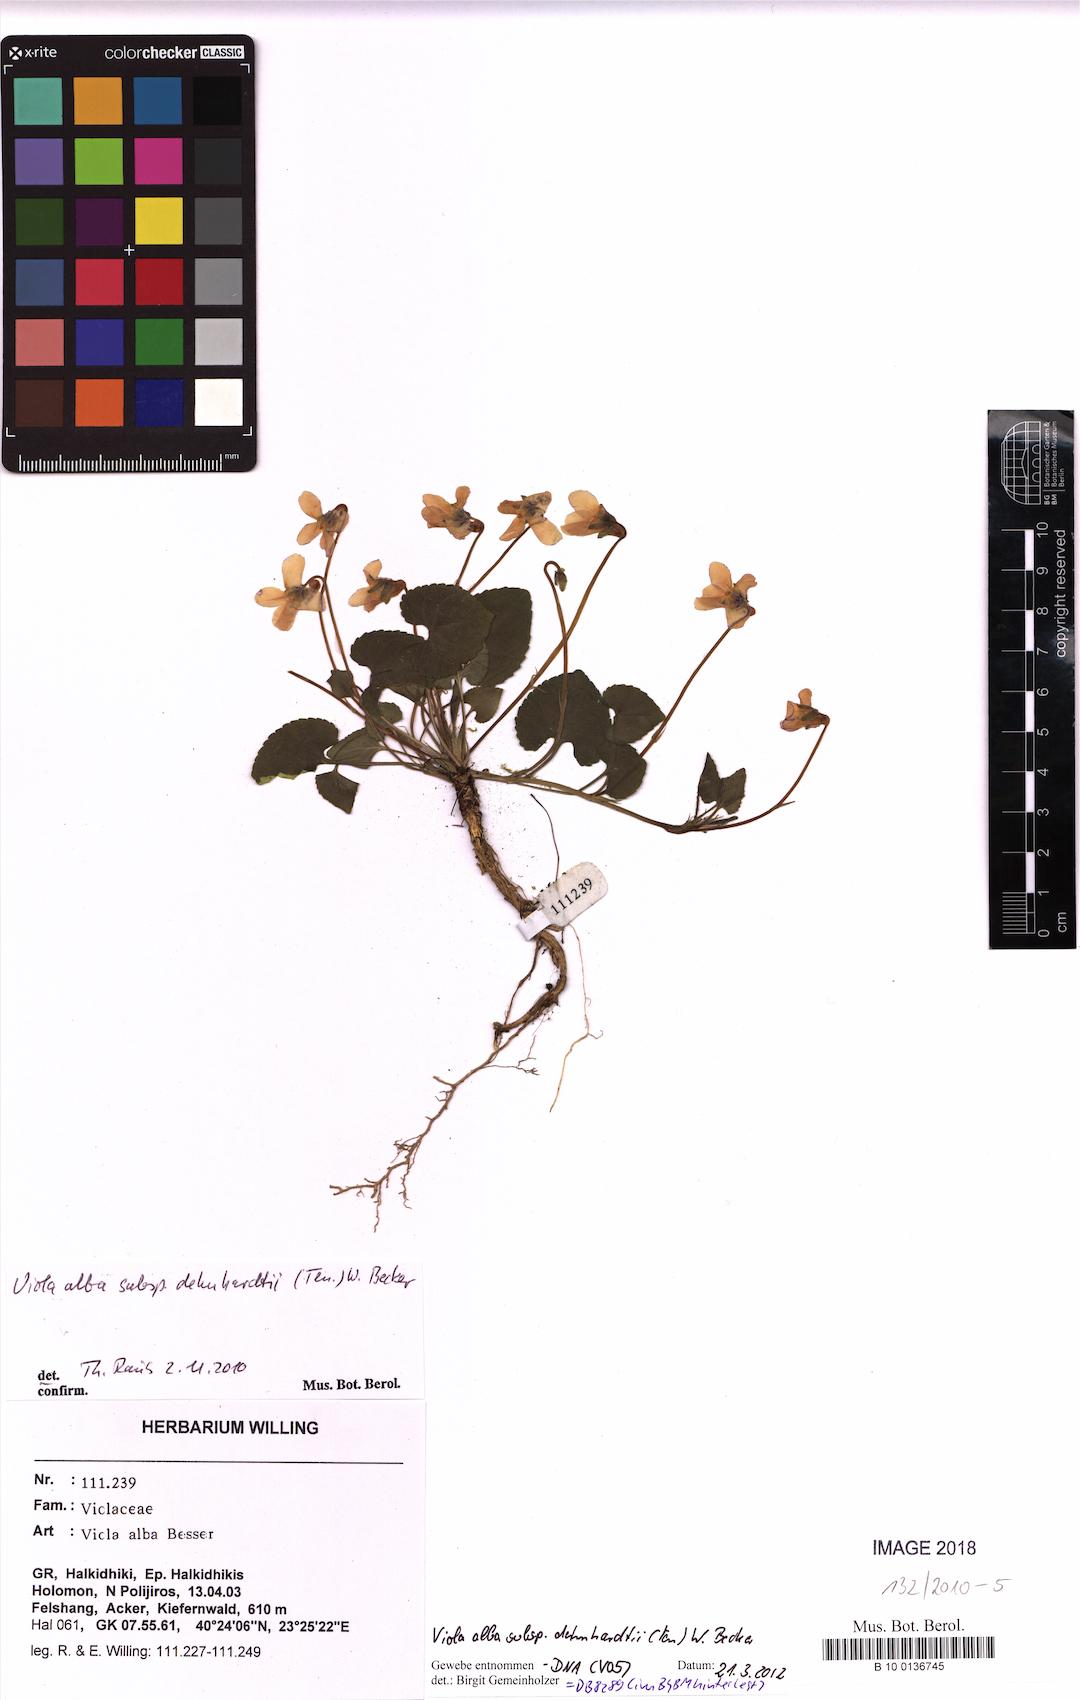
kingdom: Plantae
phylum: Tracheophyta
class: Magnoliopsida
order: Malpighiales
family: Violaceae
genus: Viola
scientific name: Viola alba
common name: White violet
